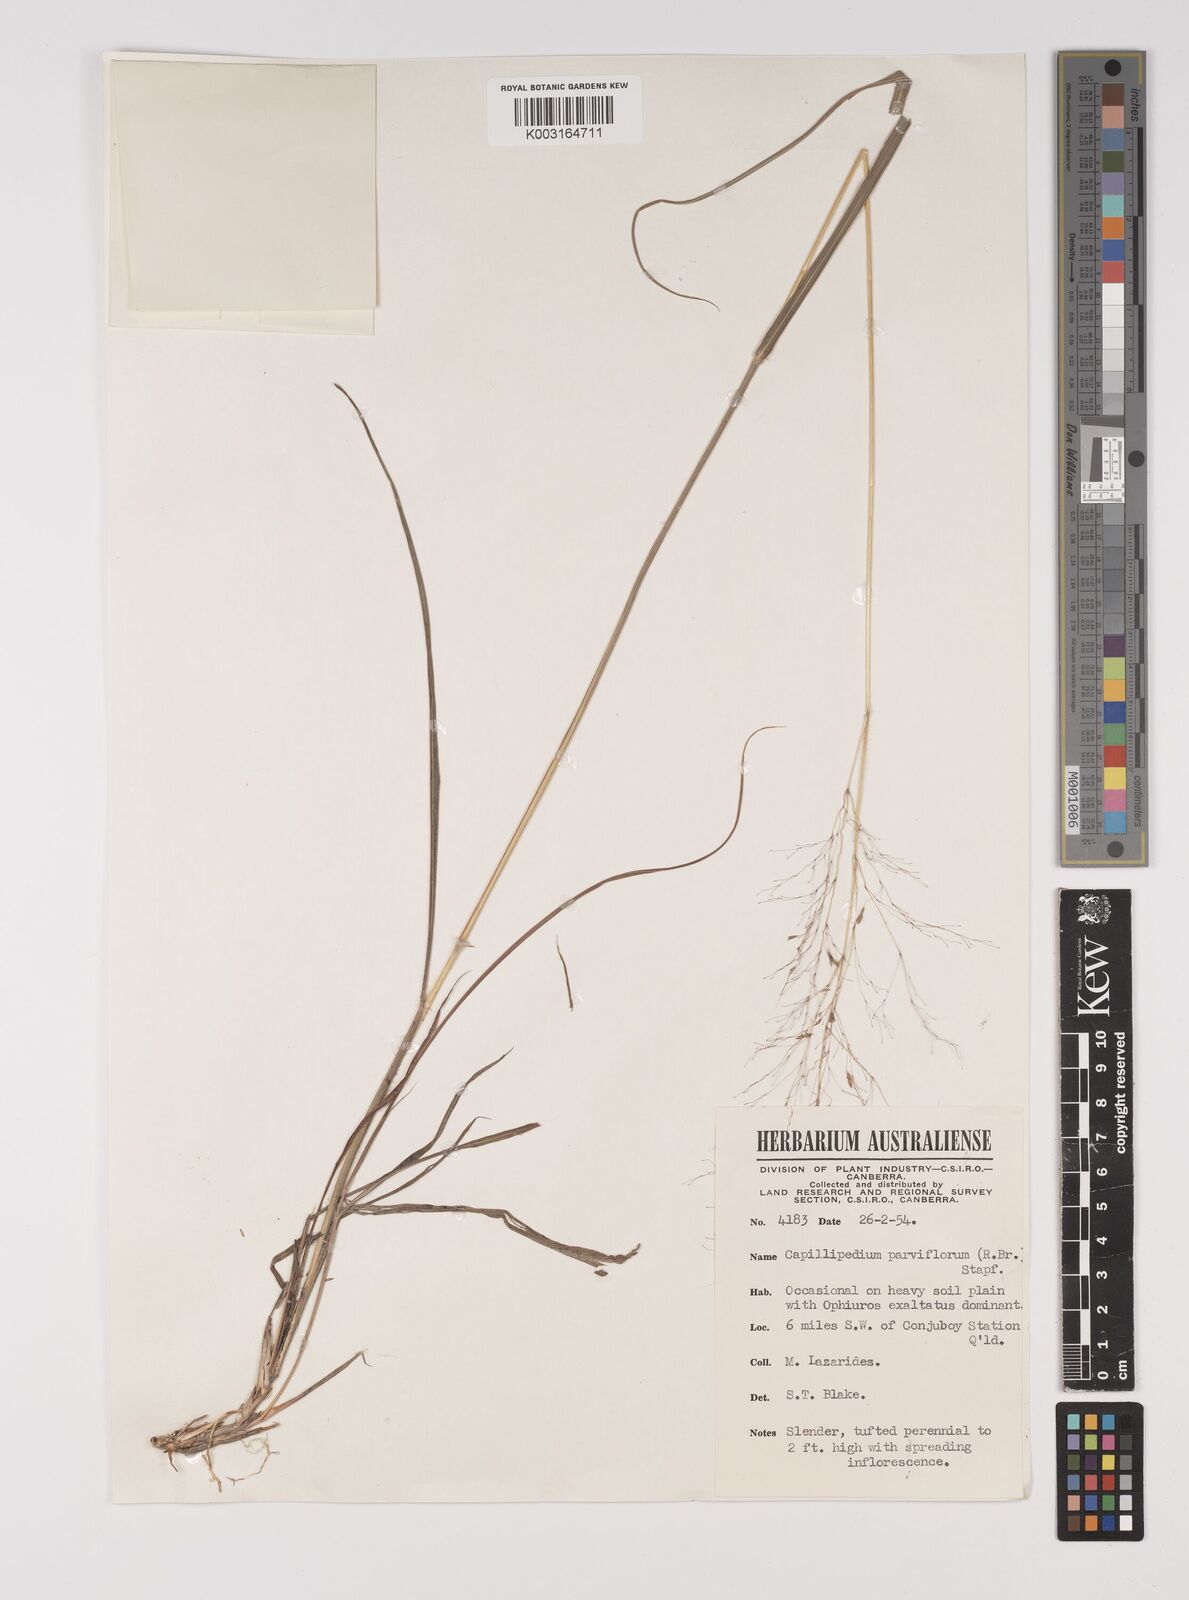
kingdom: Plantae
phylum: Tracheophyta
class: Liliopsida
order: Poales
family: Poaceae
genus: Capillipedium
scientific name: Capillipedium parviflorum
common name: Golden-beard
